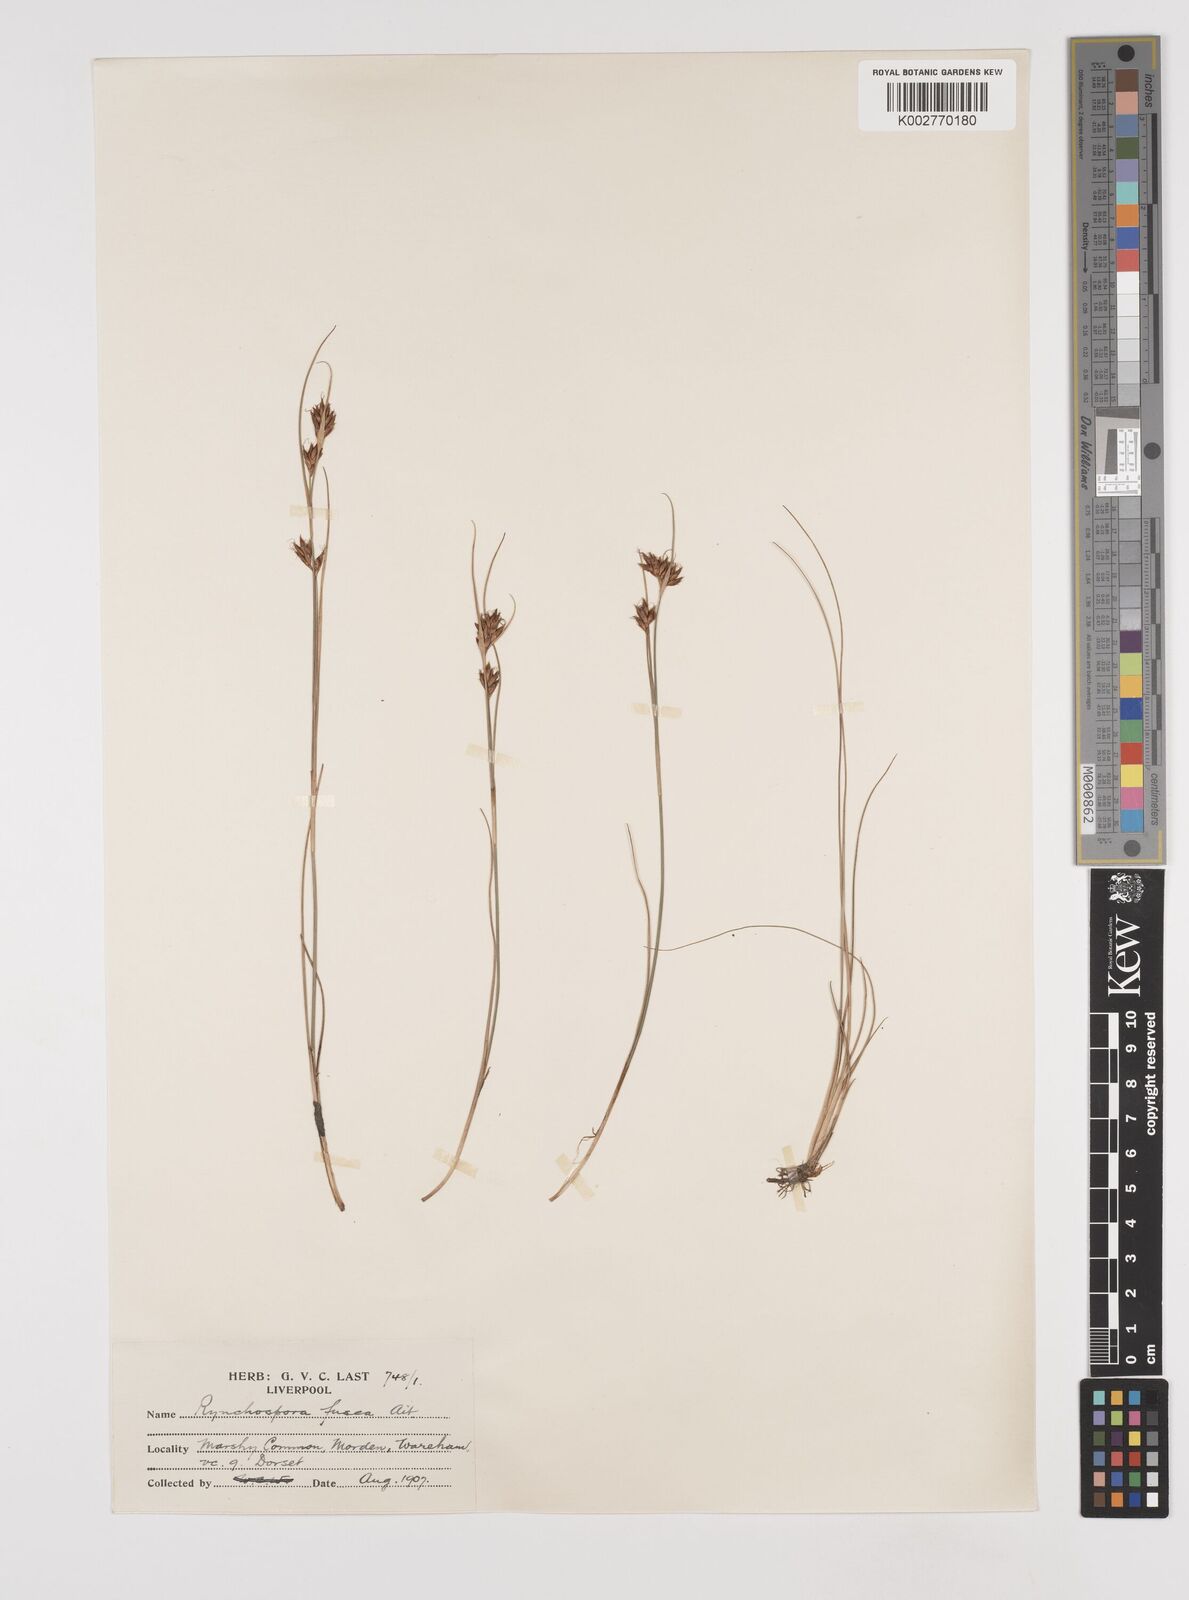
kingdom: Plantae
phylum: Tracheophyta
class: Liliopsida
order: Poales
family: Cyperaceae
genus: Rhynchospora
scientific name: Rhynchospora fusca
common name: Brown beak-sedge
